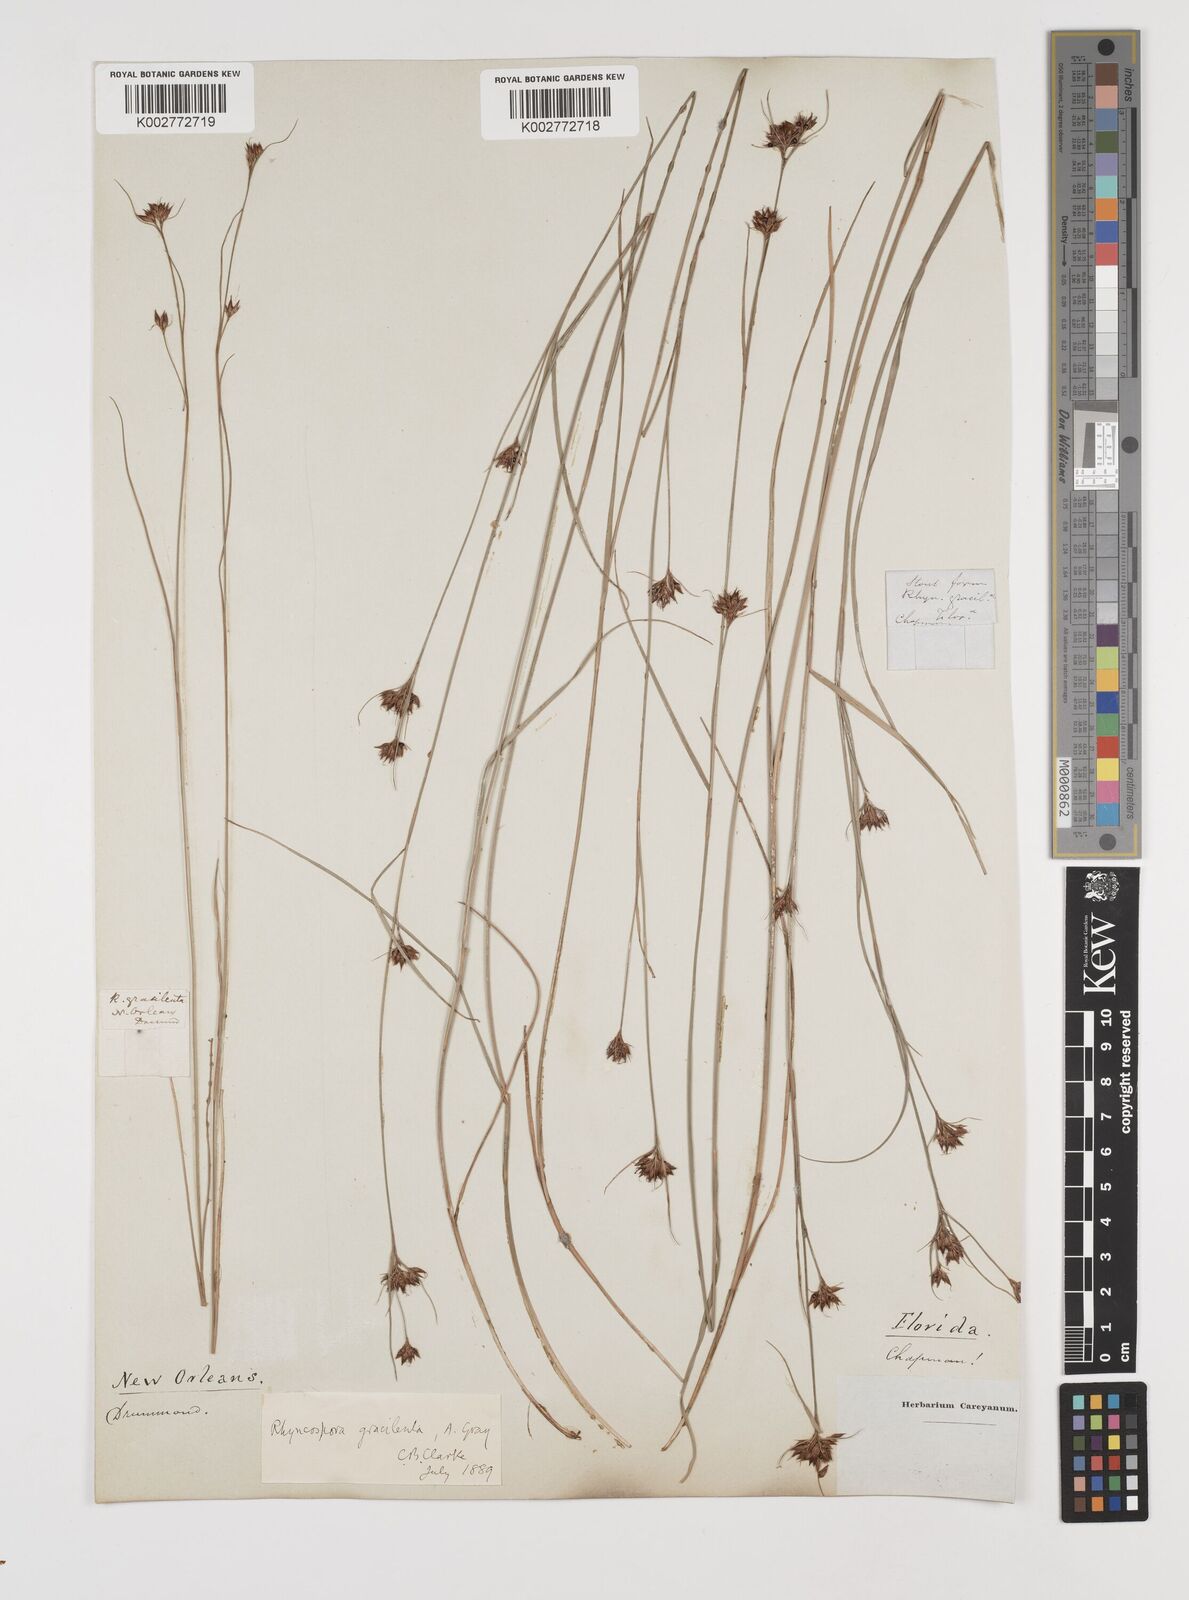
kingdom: Plantae
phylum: Tracheophyta
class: Liliopsida
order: Poales
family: Cyperaceae
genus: Rhynchospora
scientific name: Rhynchospora gracilenta
